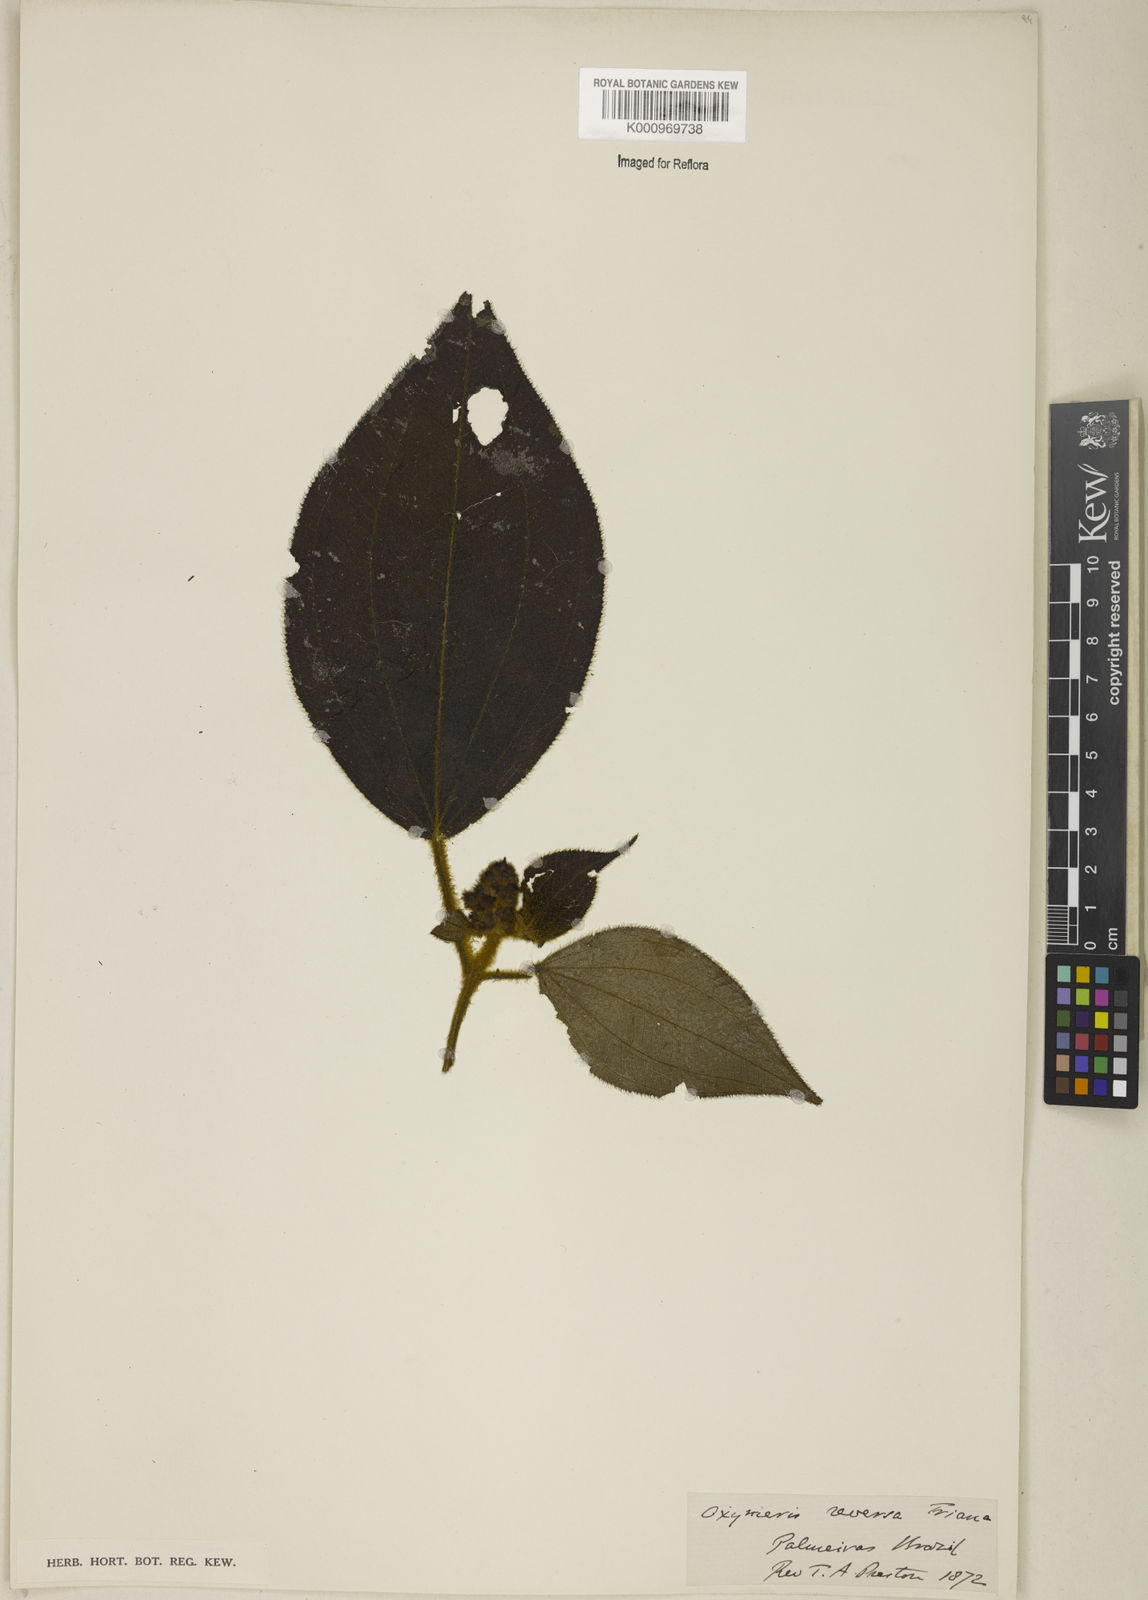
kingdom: Plantae
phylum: Tracheophyta
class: Magnoliopsida
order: Myrtales
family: Melastomataceae
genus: Miconia
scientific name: Miconia reversa
